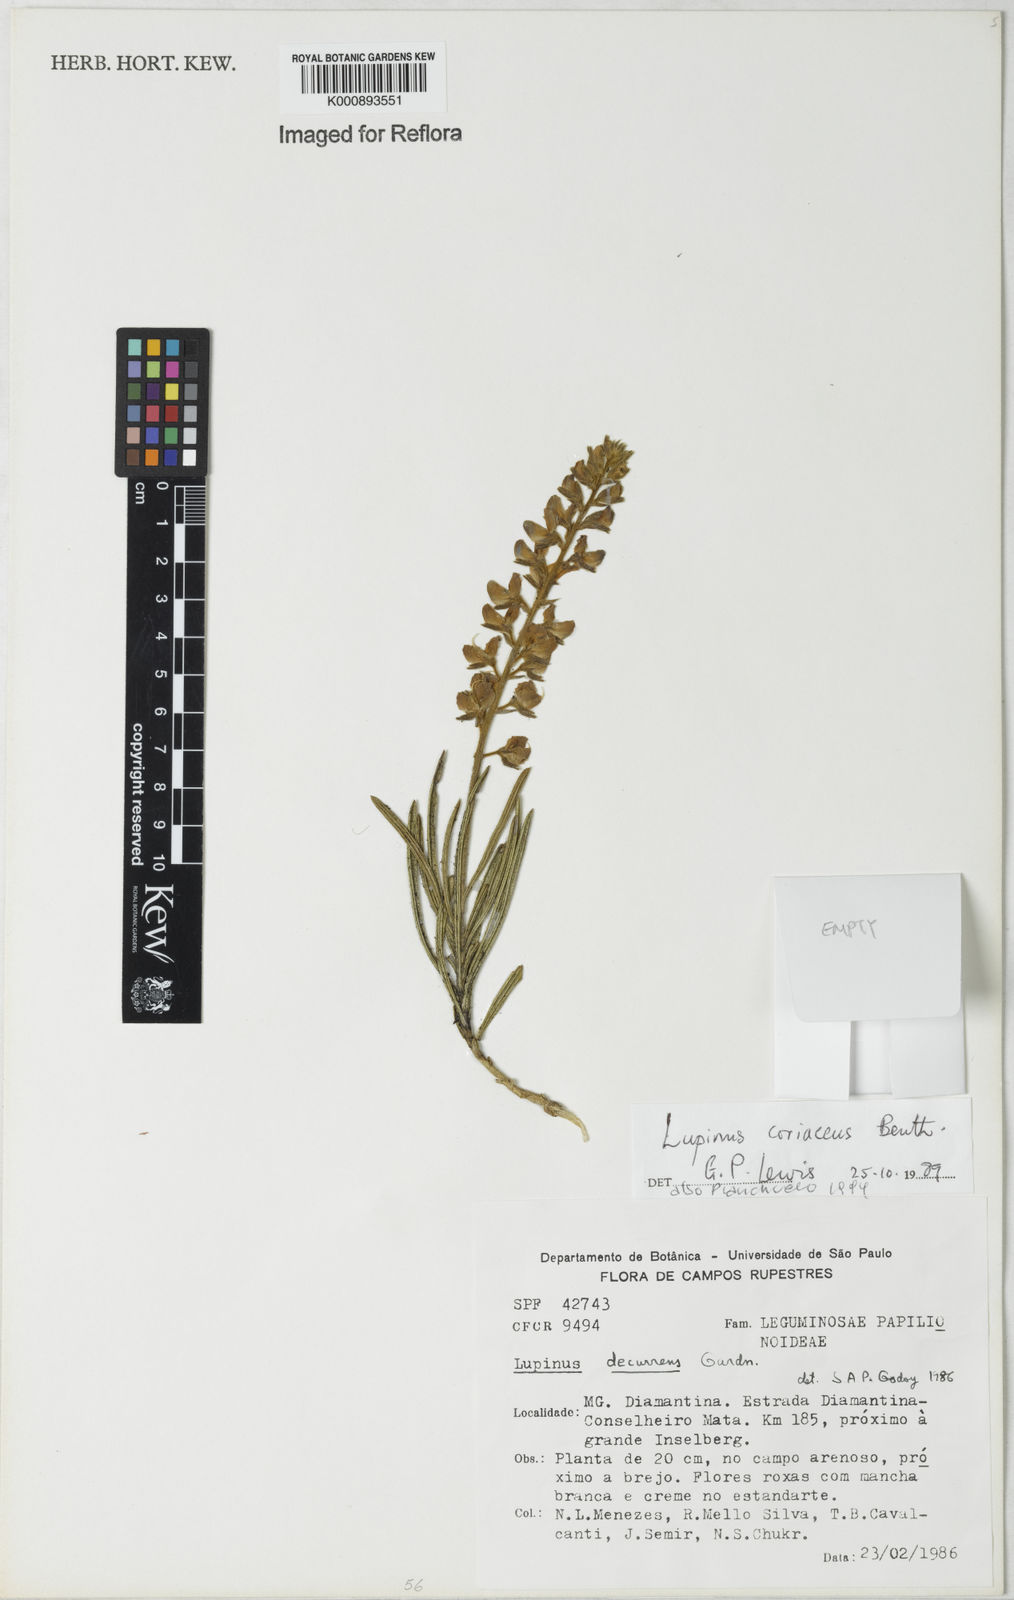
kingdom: Plantae
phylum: Tracheophyta
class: Magnoliopsida
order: Fabales
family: Fabaceae
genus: Lupinus
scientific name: Lupinus coriaceus
